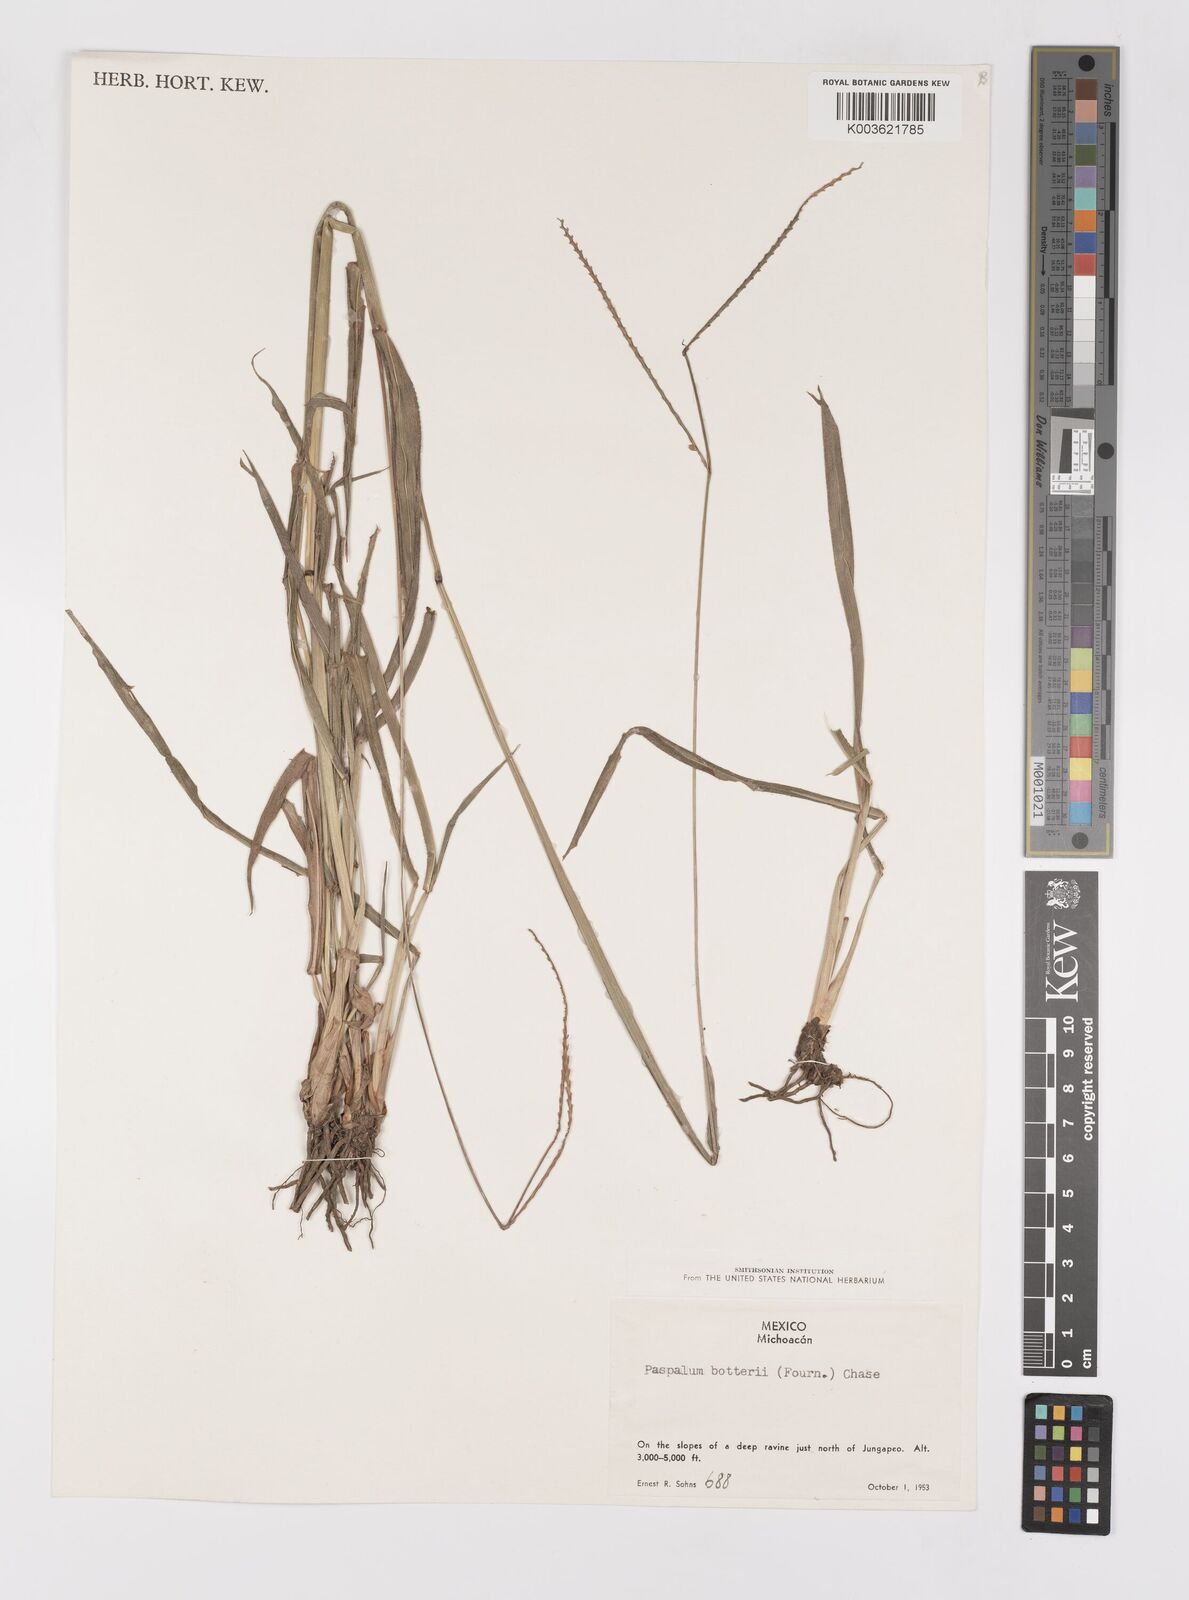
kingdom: Plantae
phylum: Tracheophyta
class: Liliopsida
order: Poales
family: Poaceae
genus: Paspalum
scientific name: Paspalum botterii
